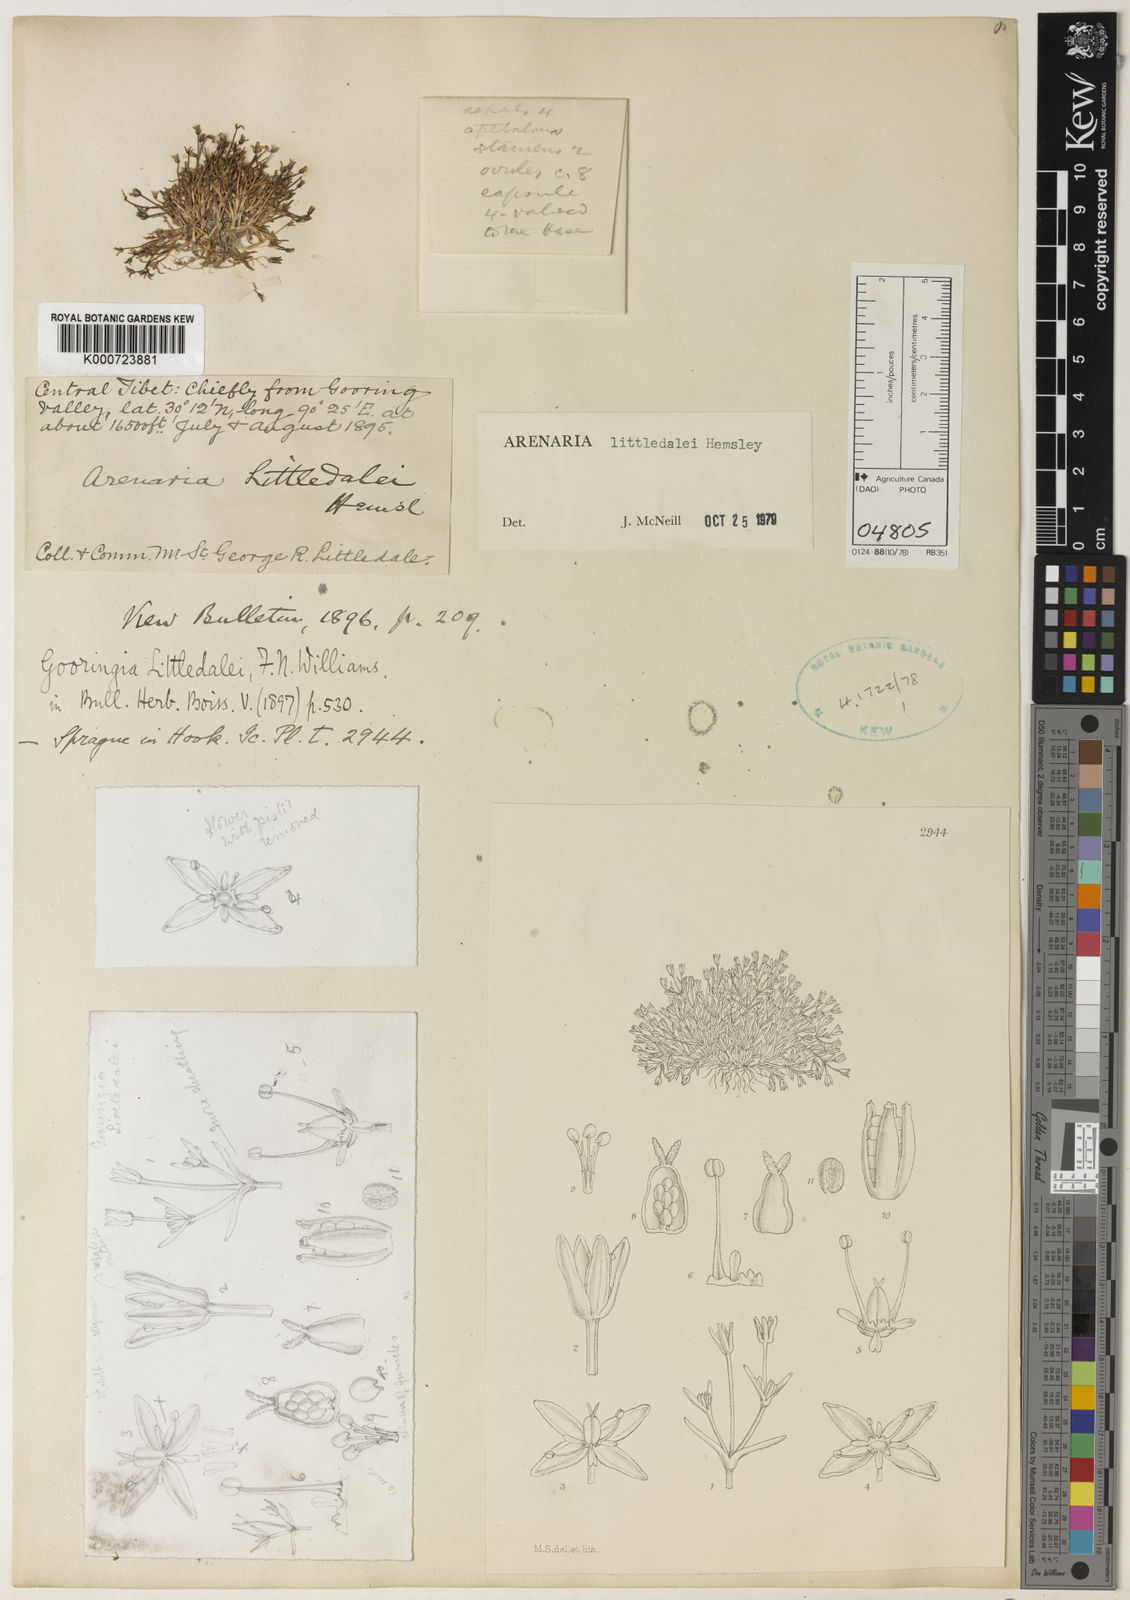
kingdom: Plantae
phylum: Tracheophyta
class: Magnoliopsida
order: Caryophyllales
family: Caryophyllaceae
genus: Odontostemma
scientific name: Odontostemma littledalei
